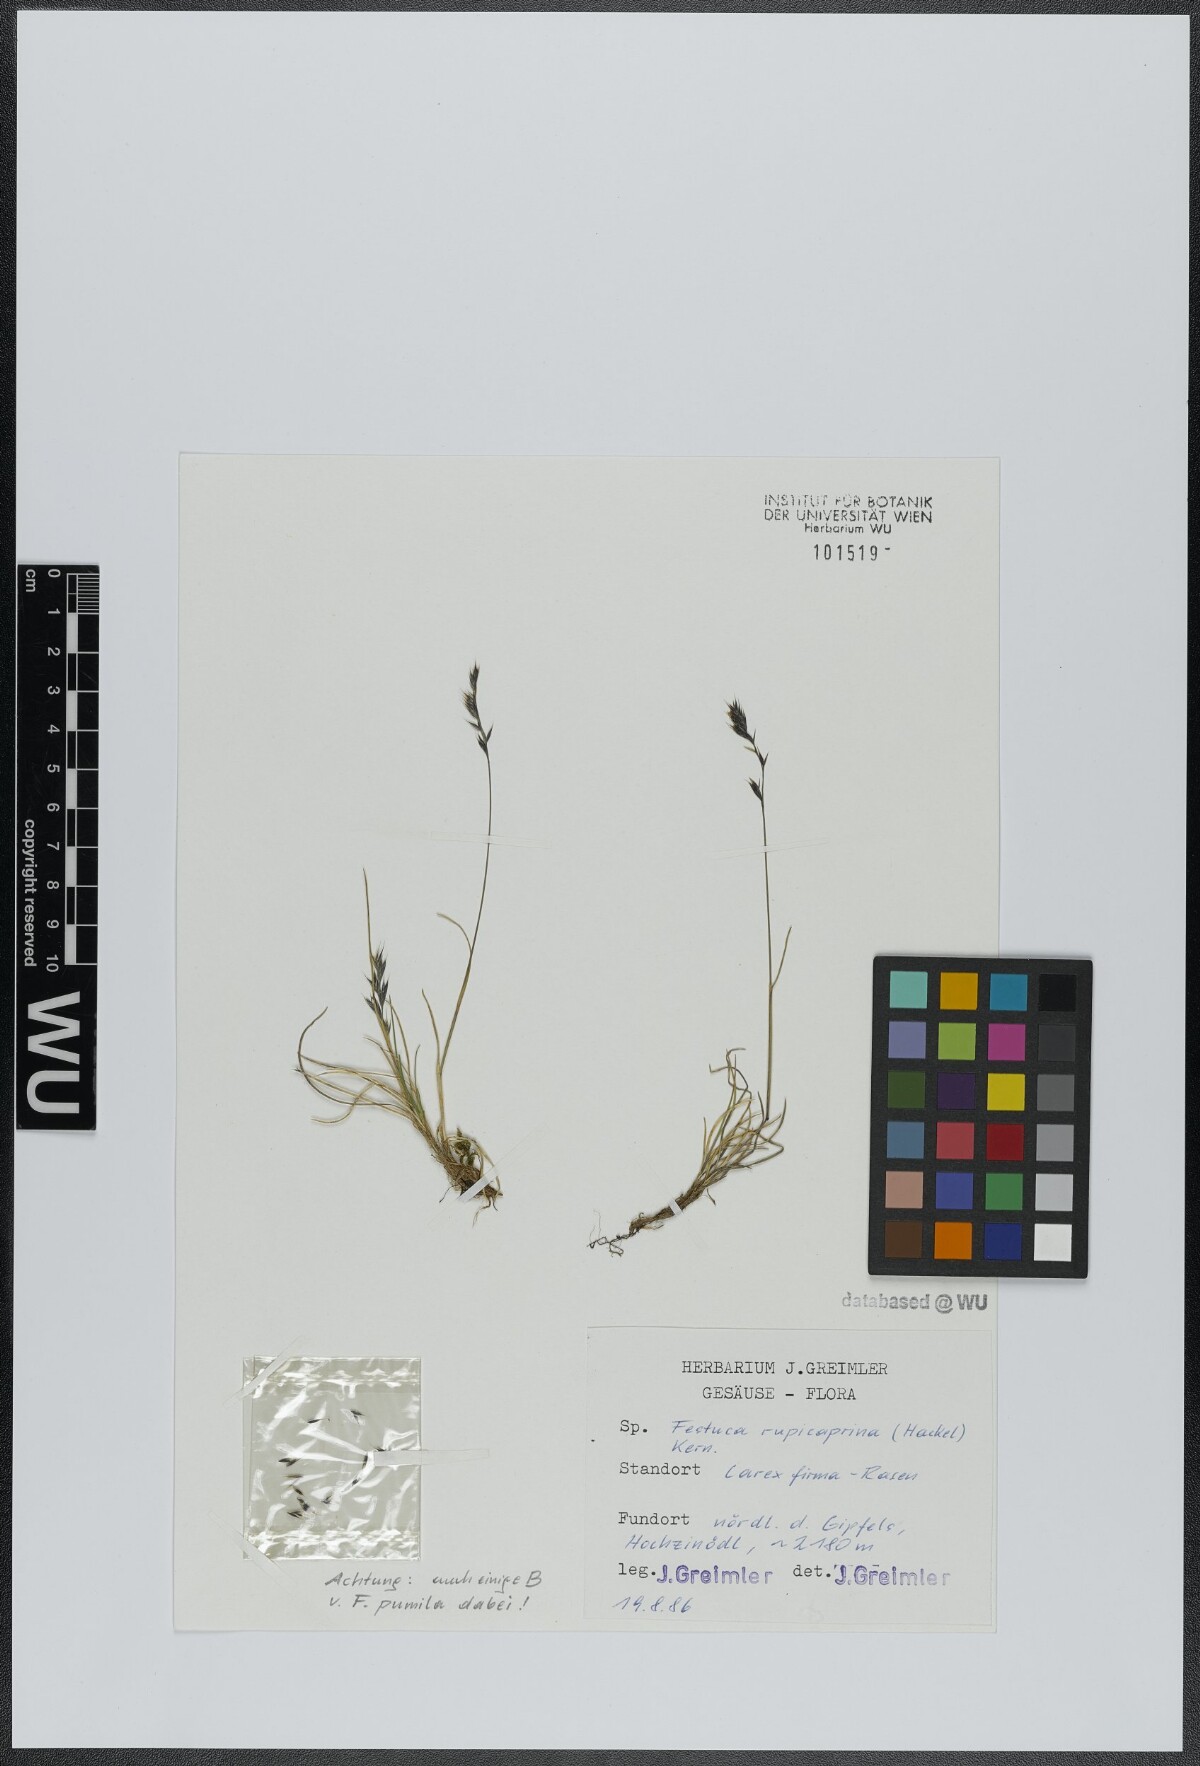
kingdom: Plantae
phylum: Tracheophyta
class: Liliopsida
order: Poales
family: Poaceae
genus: Festuca
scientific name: Festuca rupicaprina
